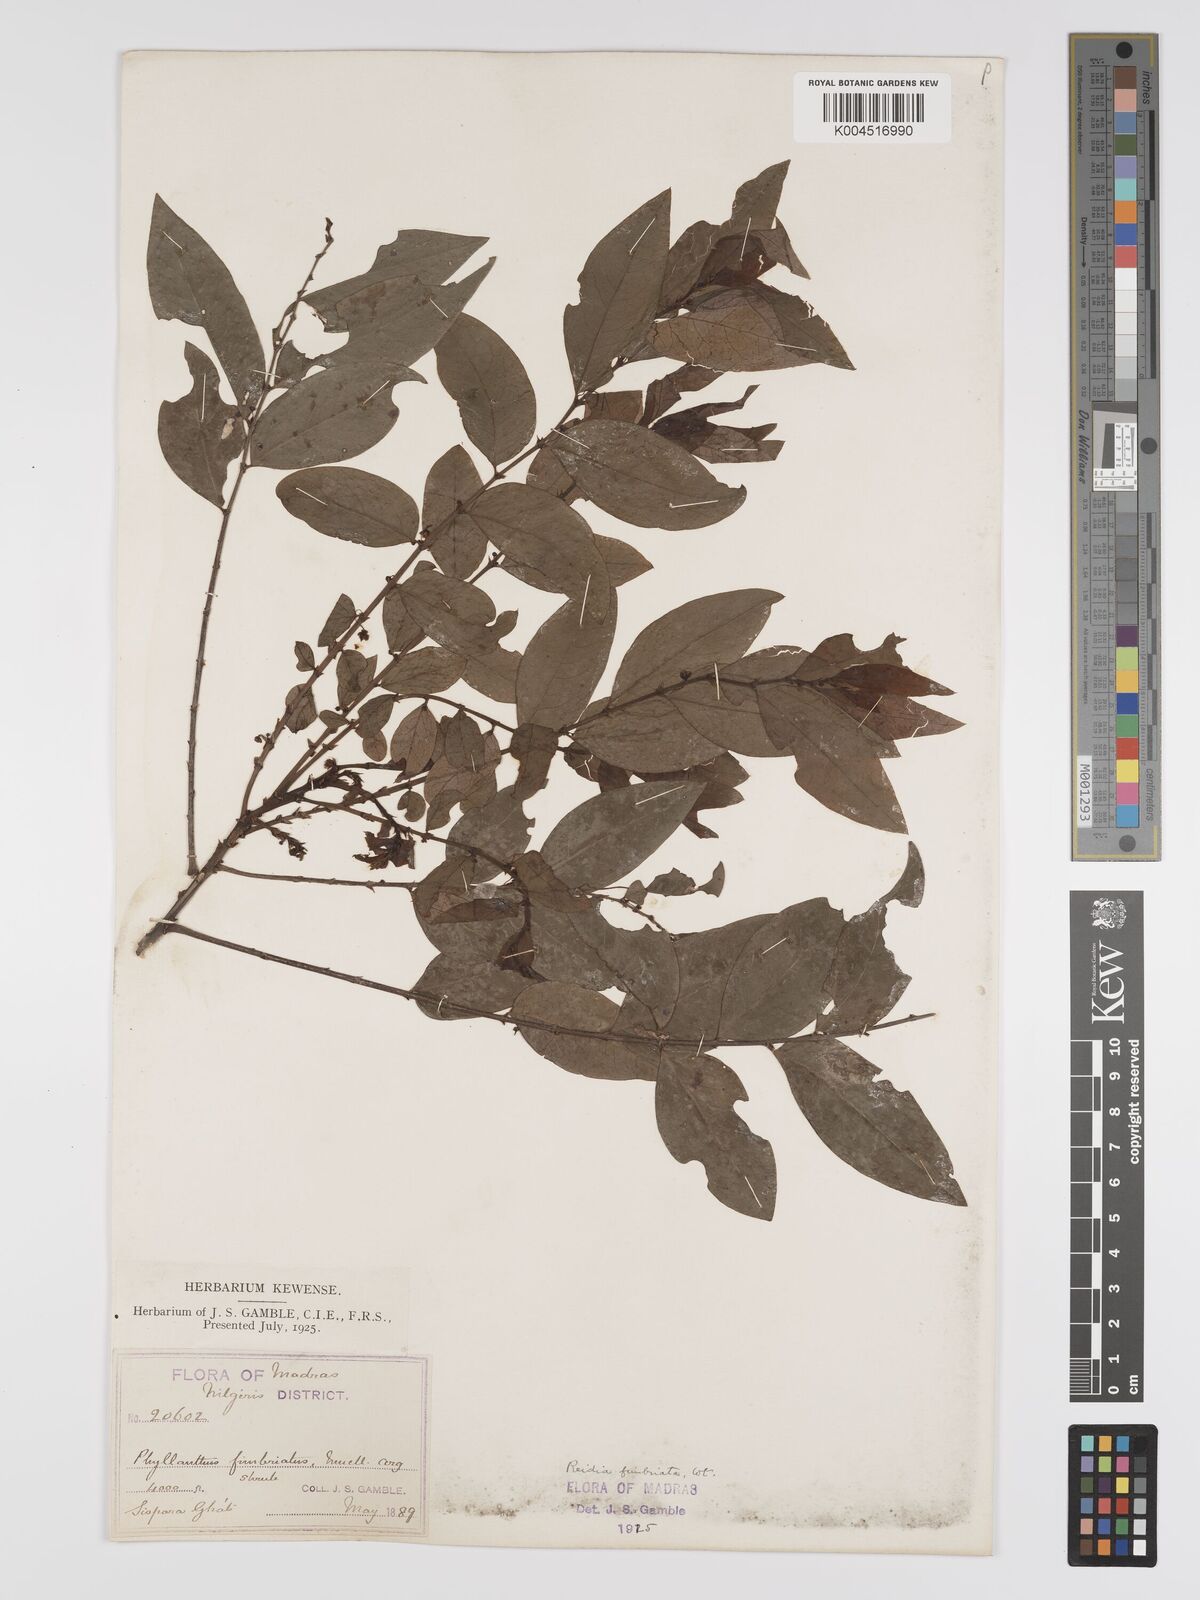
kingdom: Plantae
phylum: Tracheophyta
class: Magnoliopsida
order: Malpighiales
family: Phyllanthaceae
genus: Phyllanthus
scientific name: Phyllanthus fimbriatus
